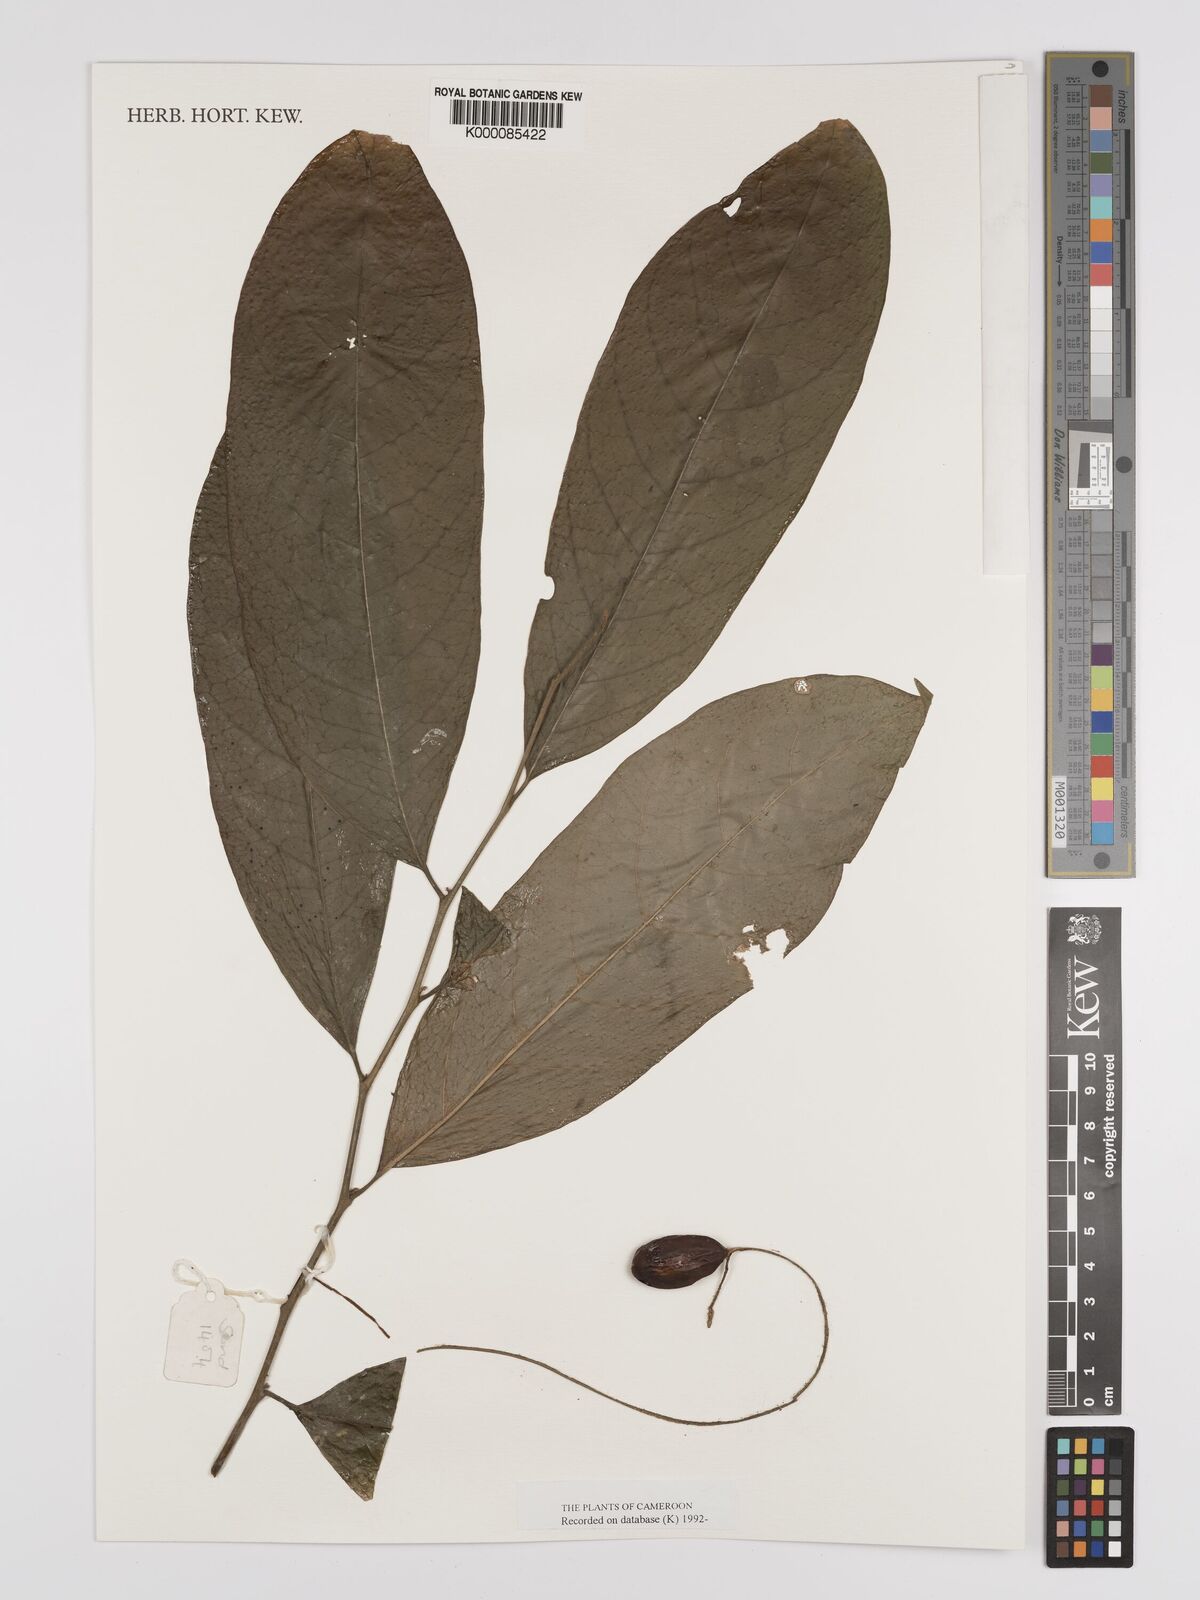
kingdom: Plantae
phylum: Tracheophyta
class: Magnoliopsida
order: Icacinales
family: Icacinaceae
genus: Vadensea
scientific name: Vadensea tenuifolia
